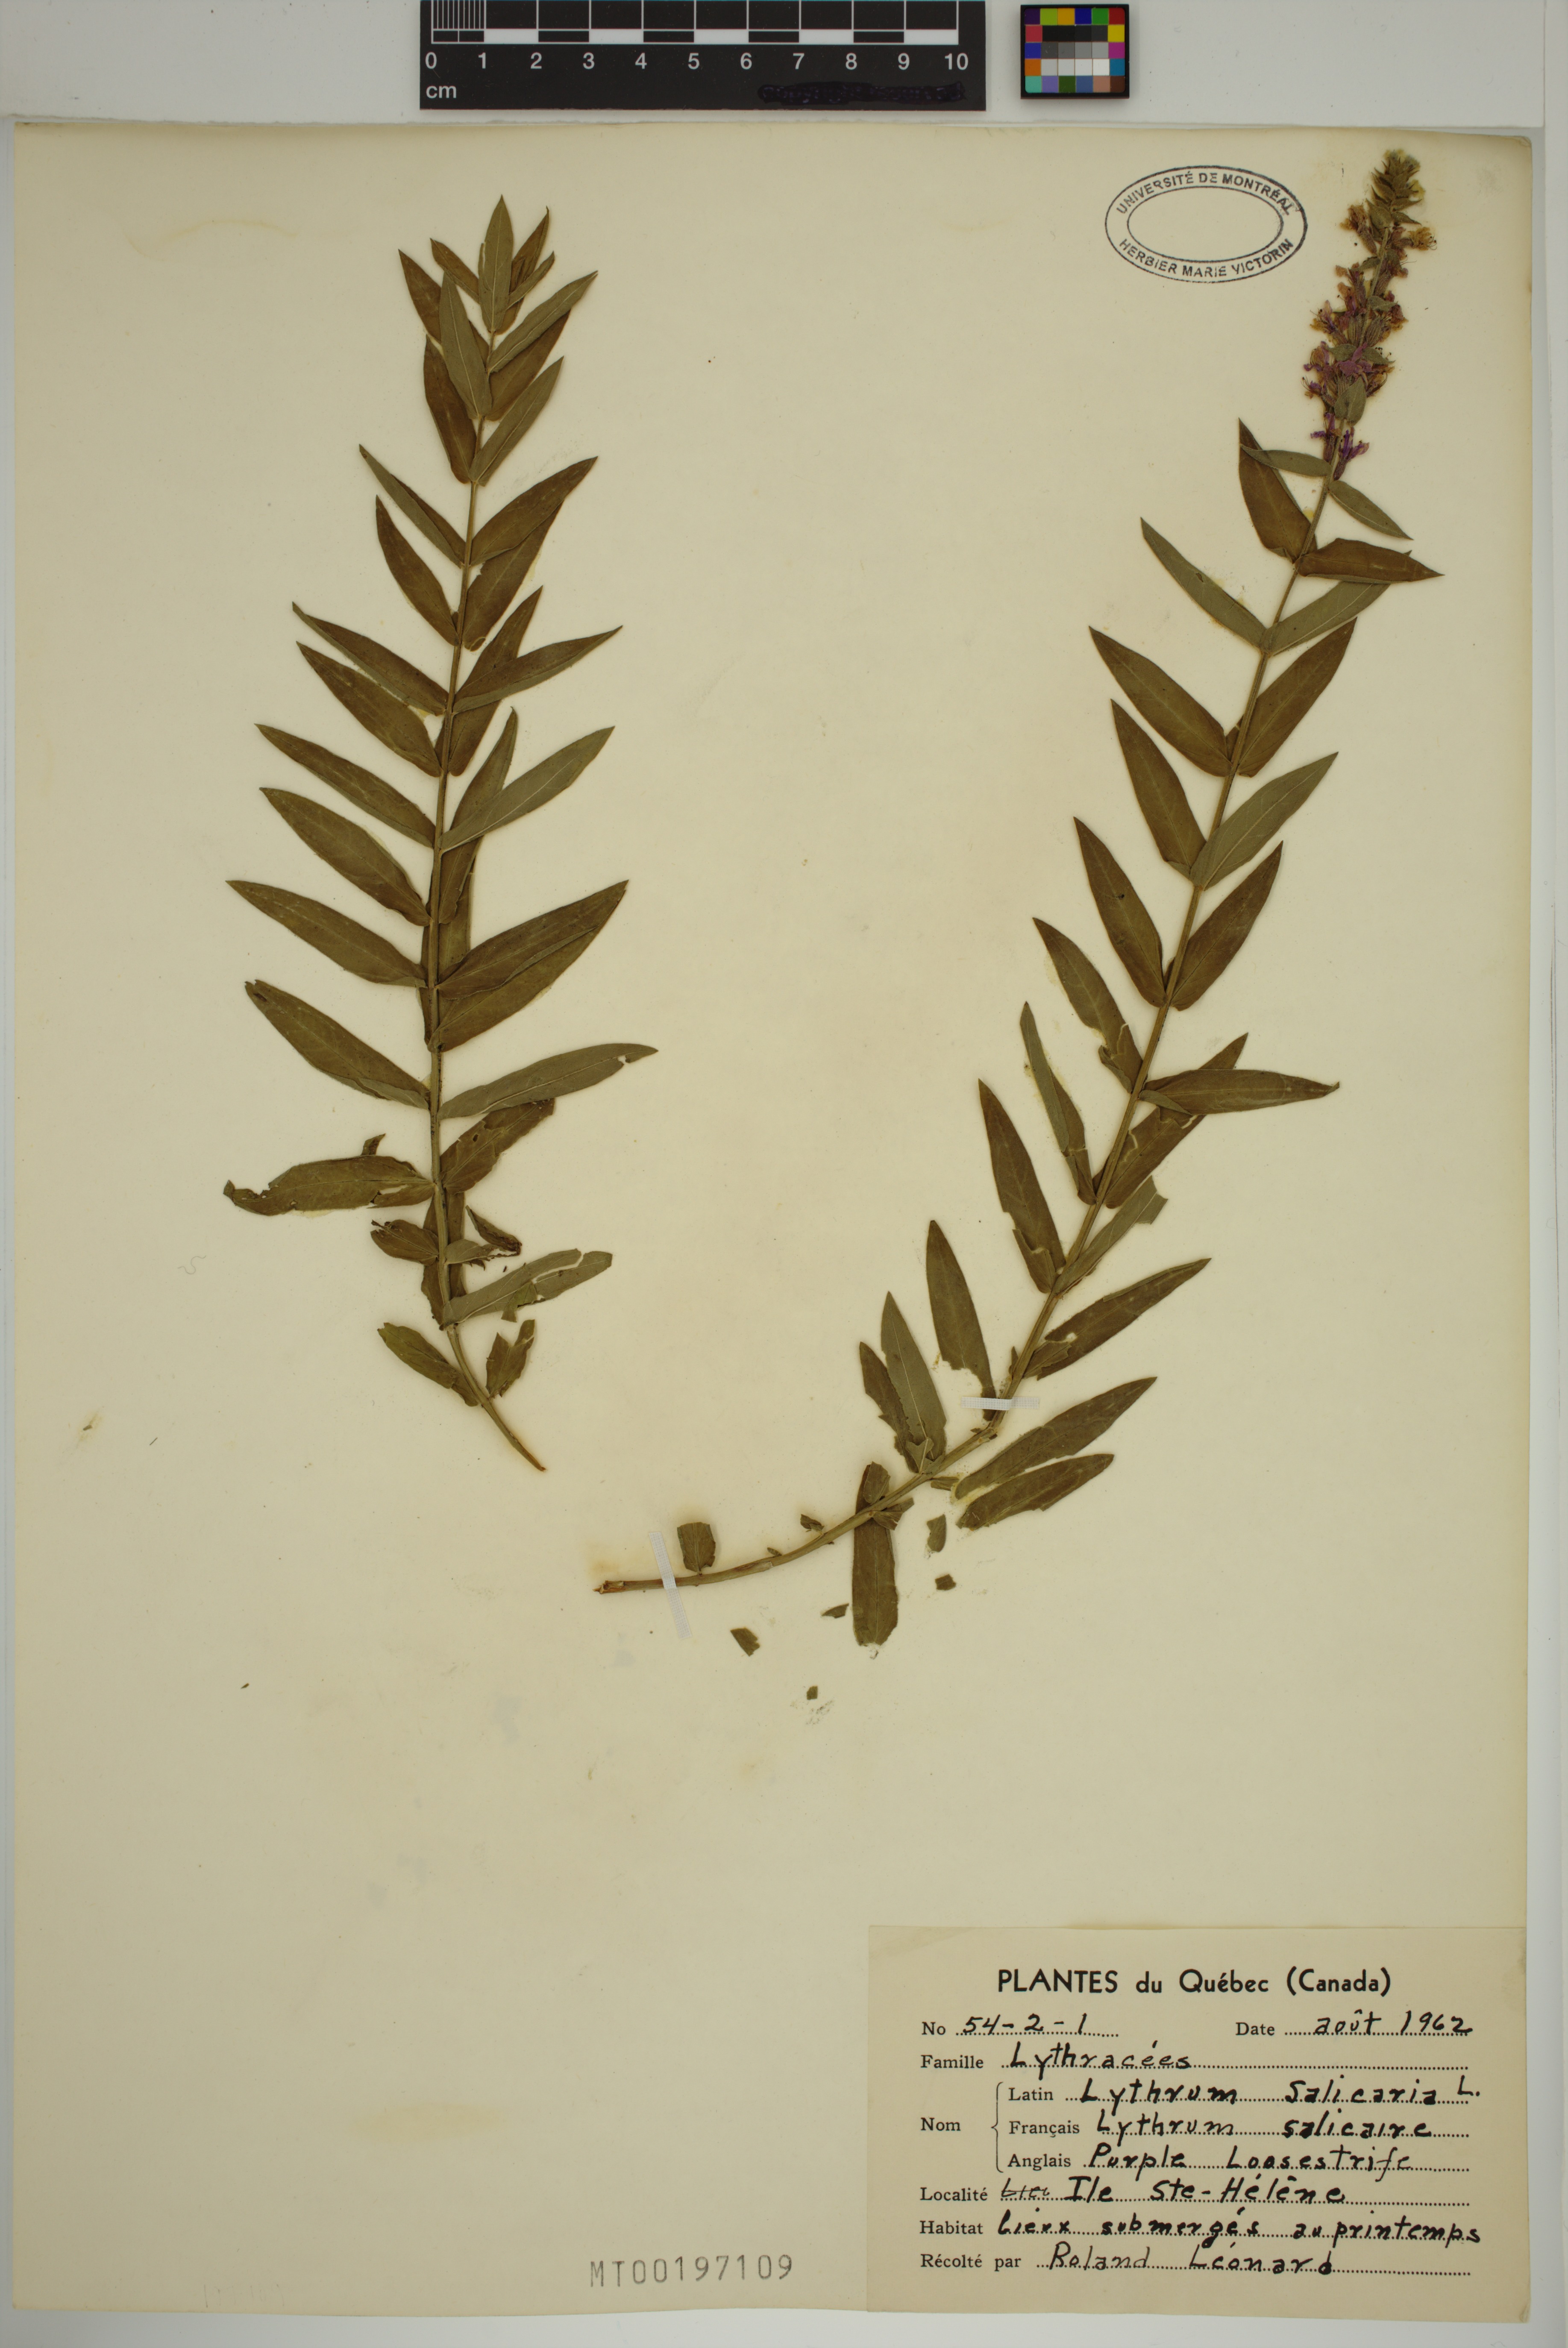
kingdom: Plantae
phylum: Tracheophyta
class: Magnoliopsida
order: Myrtales
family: Lythraceae
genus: Lythrum
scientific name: Lythrum salicaria
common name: Purple loosestrife
